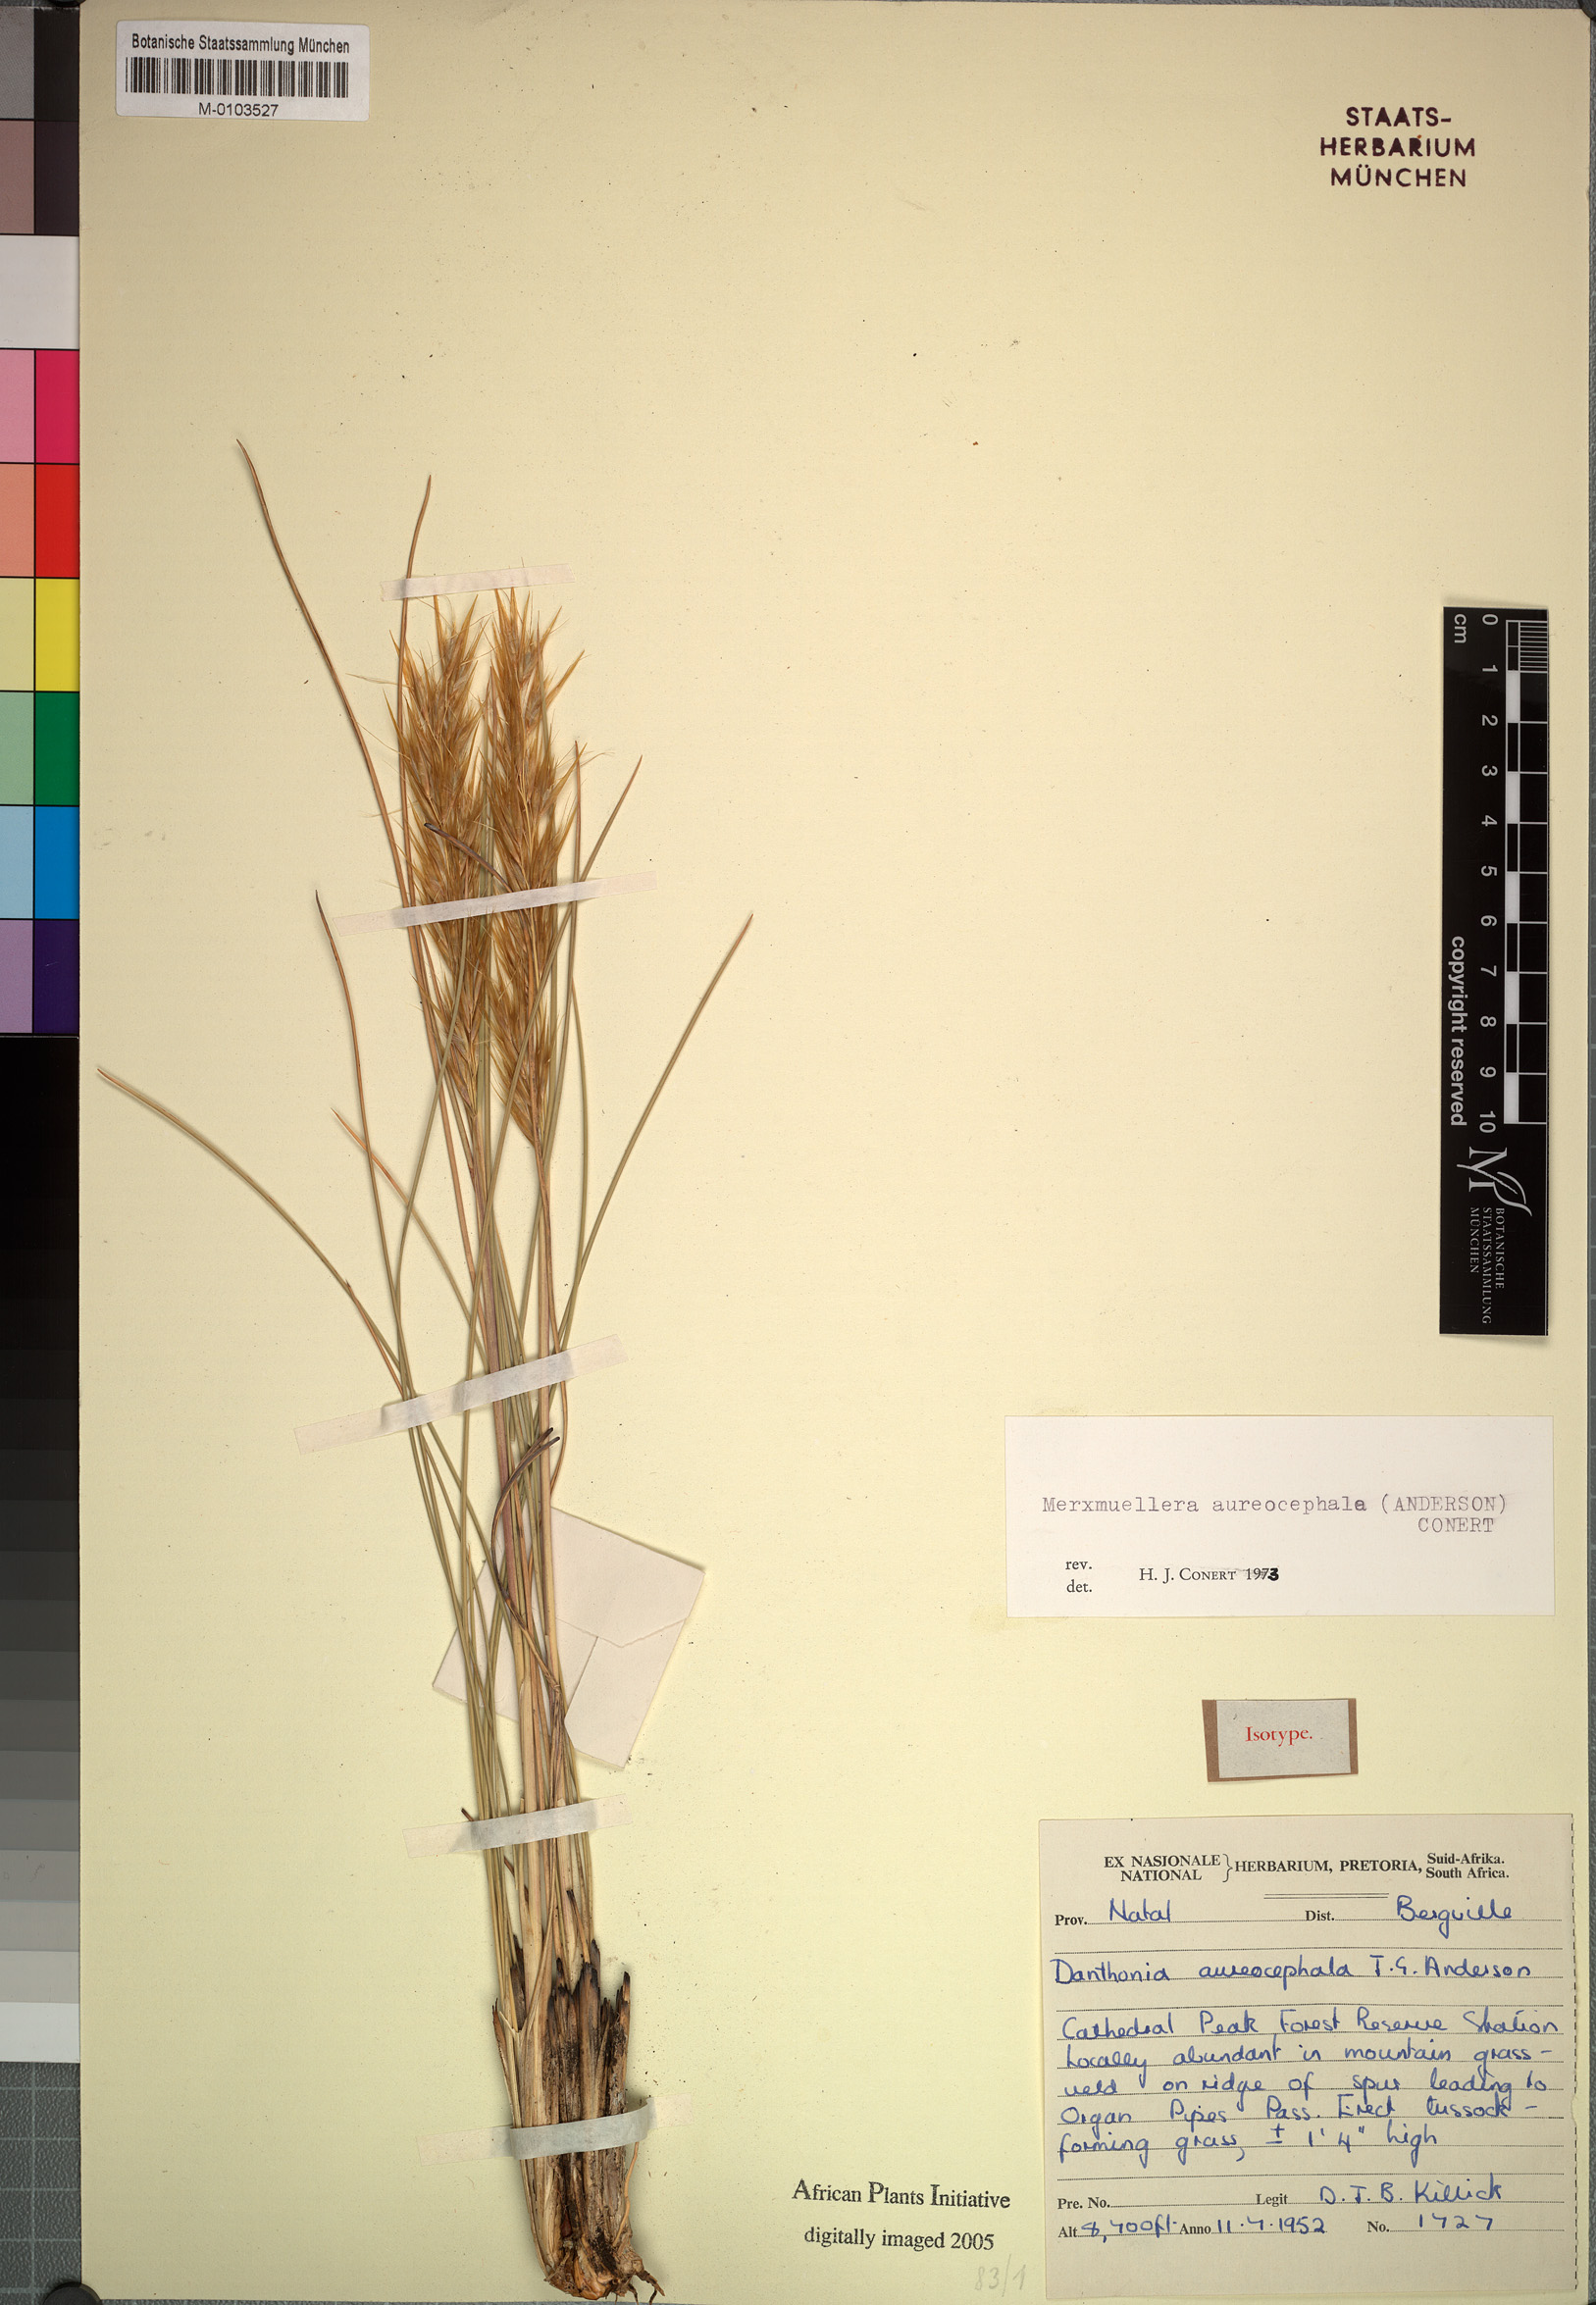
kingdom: Plantae
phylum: Tracheophyta
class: Liliopsida
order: Poales
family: Poaceae
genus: Tenaxia
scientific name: Tenaxia aureocephala
